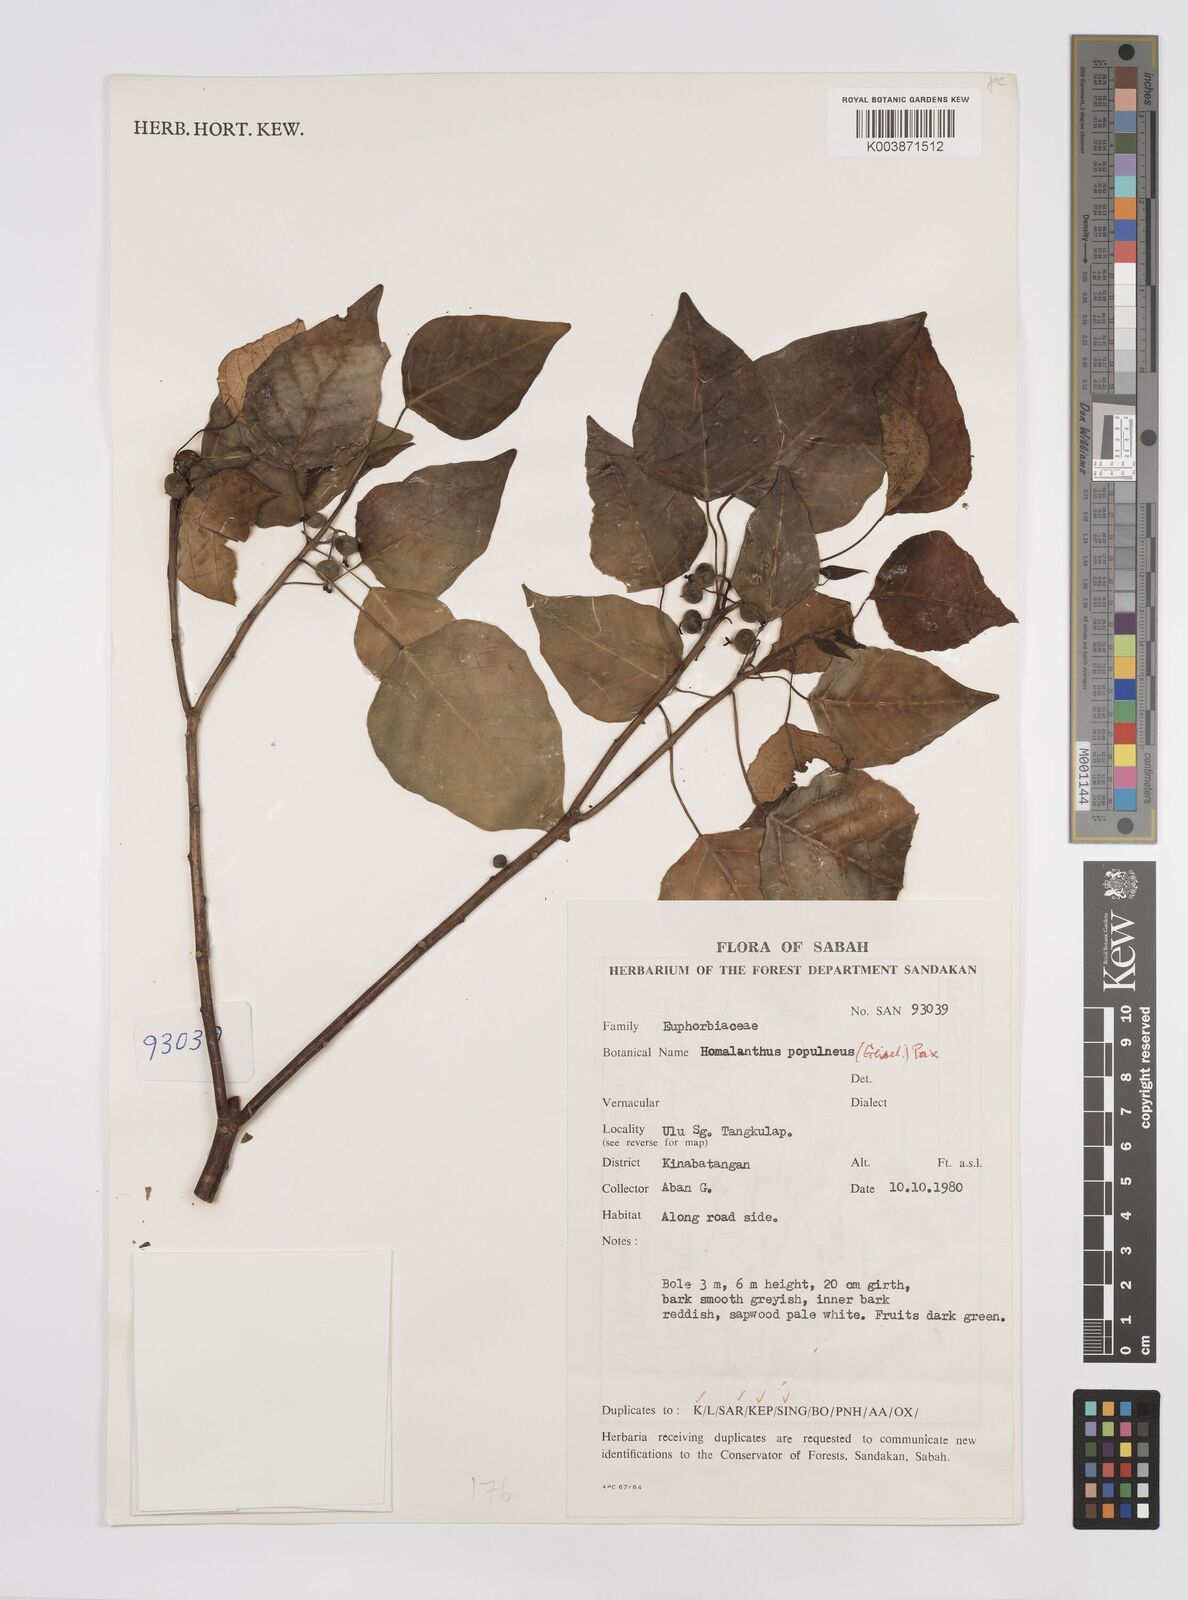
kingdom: Plantae
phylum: Tracheophyta
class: Magnoliopsida
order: Malpighiales
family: Euphorbiaceae
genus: Homalanthus
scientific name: Homalanthus populneus
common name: Spurge
